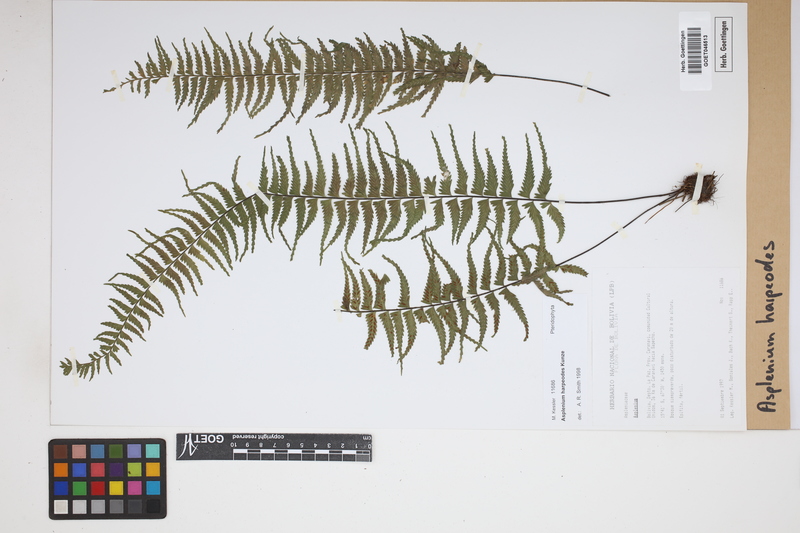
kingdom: Plantae
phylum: Tracheophyta
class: Polypodiopsida
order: Polypodiales
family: Aspleniaceae
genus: Asplenium
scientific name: Asplenium harpeodes
